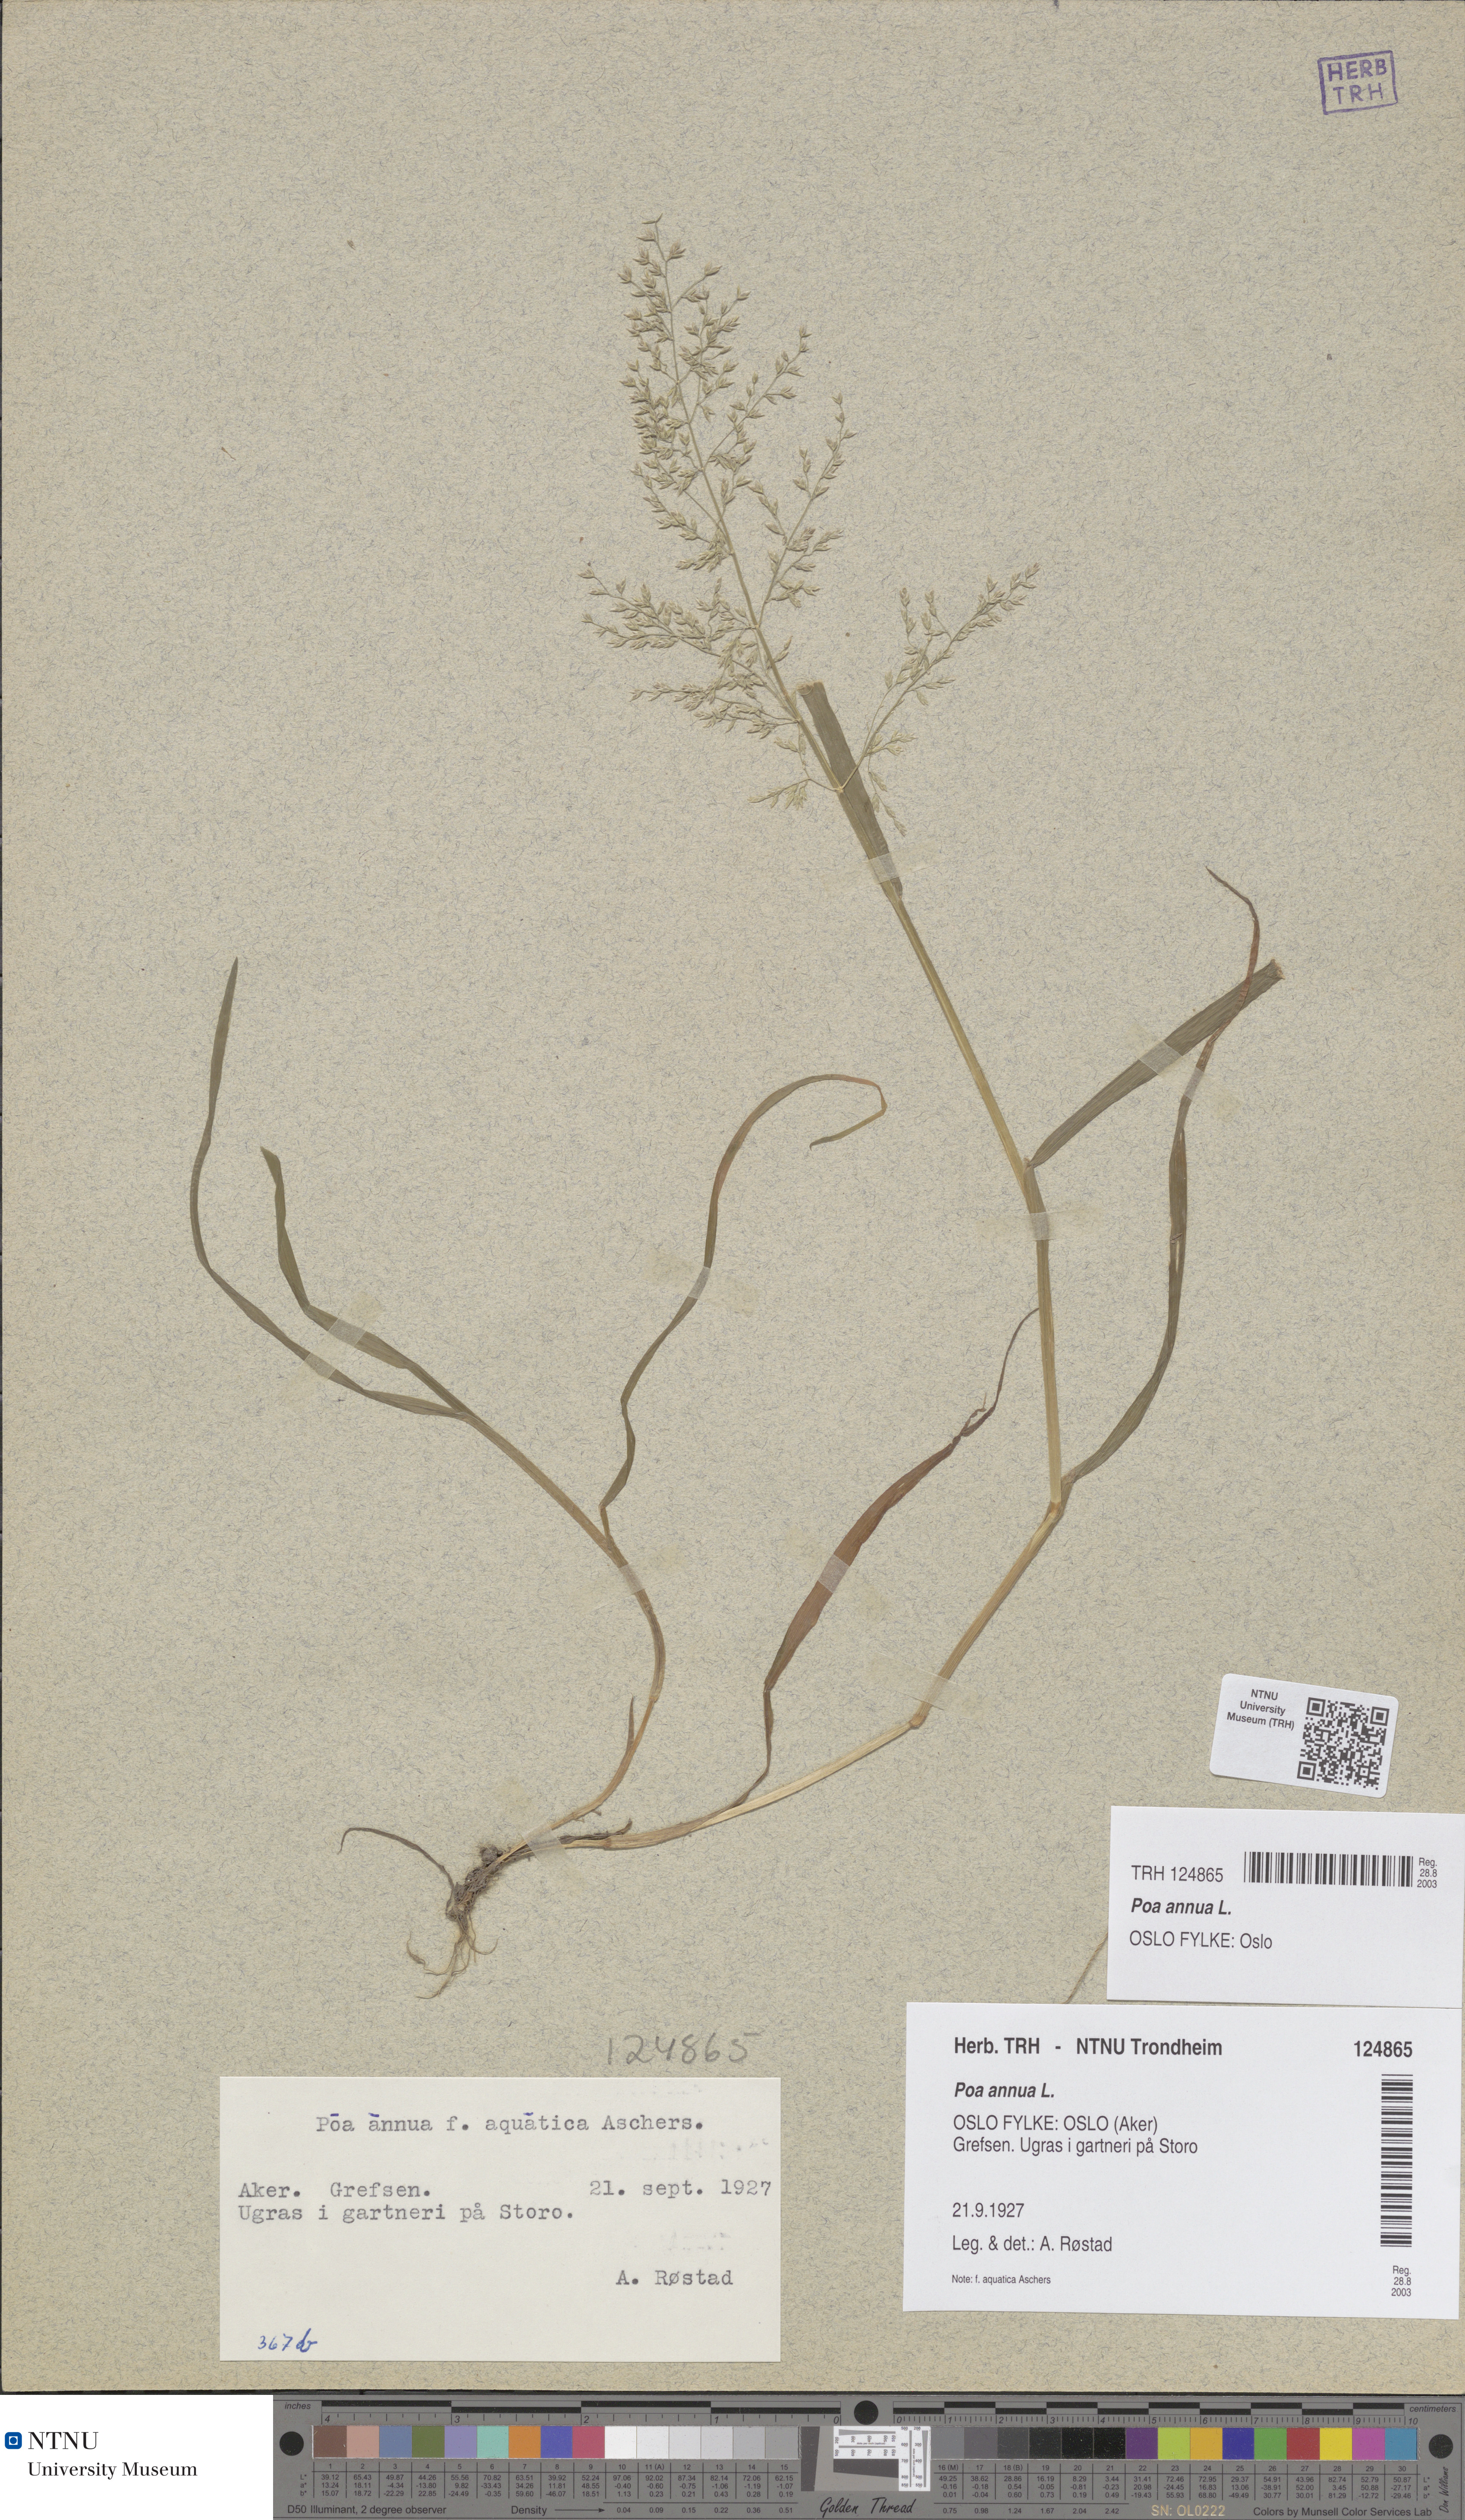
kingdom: Plantae
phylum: Tracheophyta
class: Liliopsida
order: Poales
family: Poaceae
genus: Poa
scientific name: Poa annua
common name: Annual bluegrass
